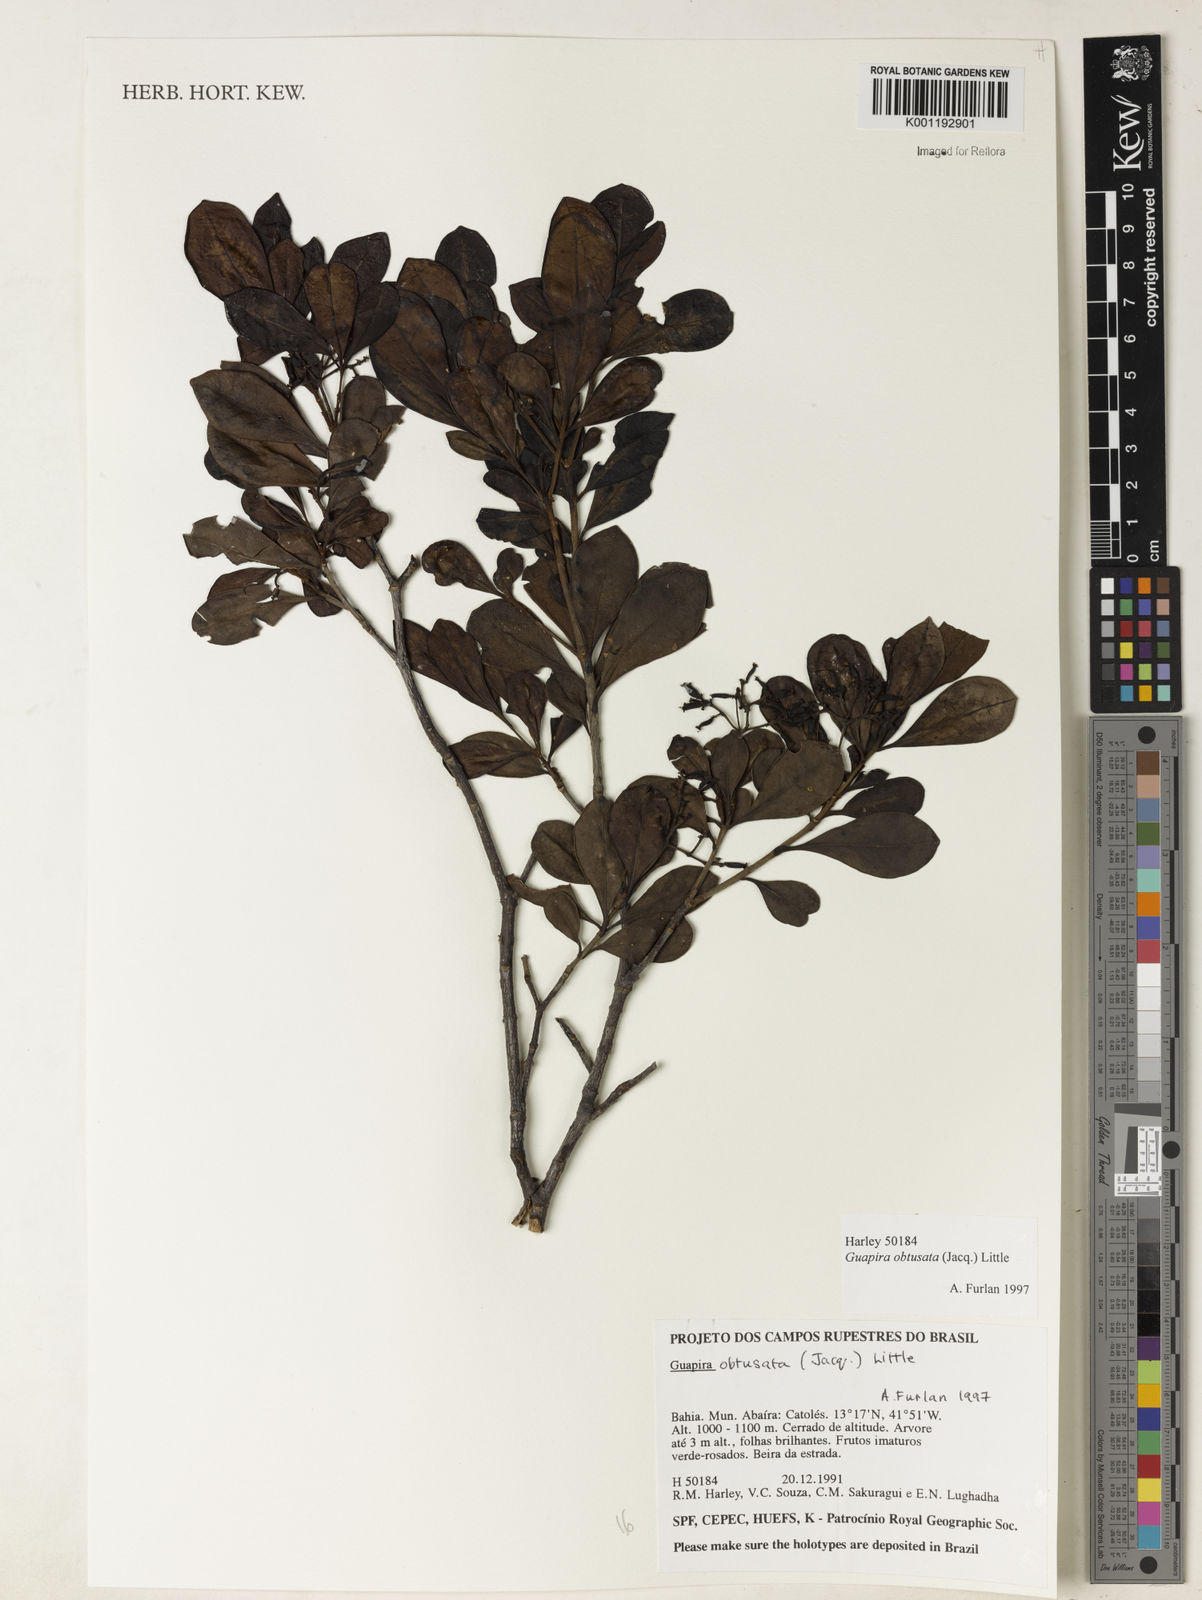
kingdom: Plantae
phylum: Tracheophyta
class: Magnoliopsida
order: Caryophyllales
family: Nyctaginaceae
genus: Guapira
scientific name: Guapira obtusata
